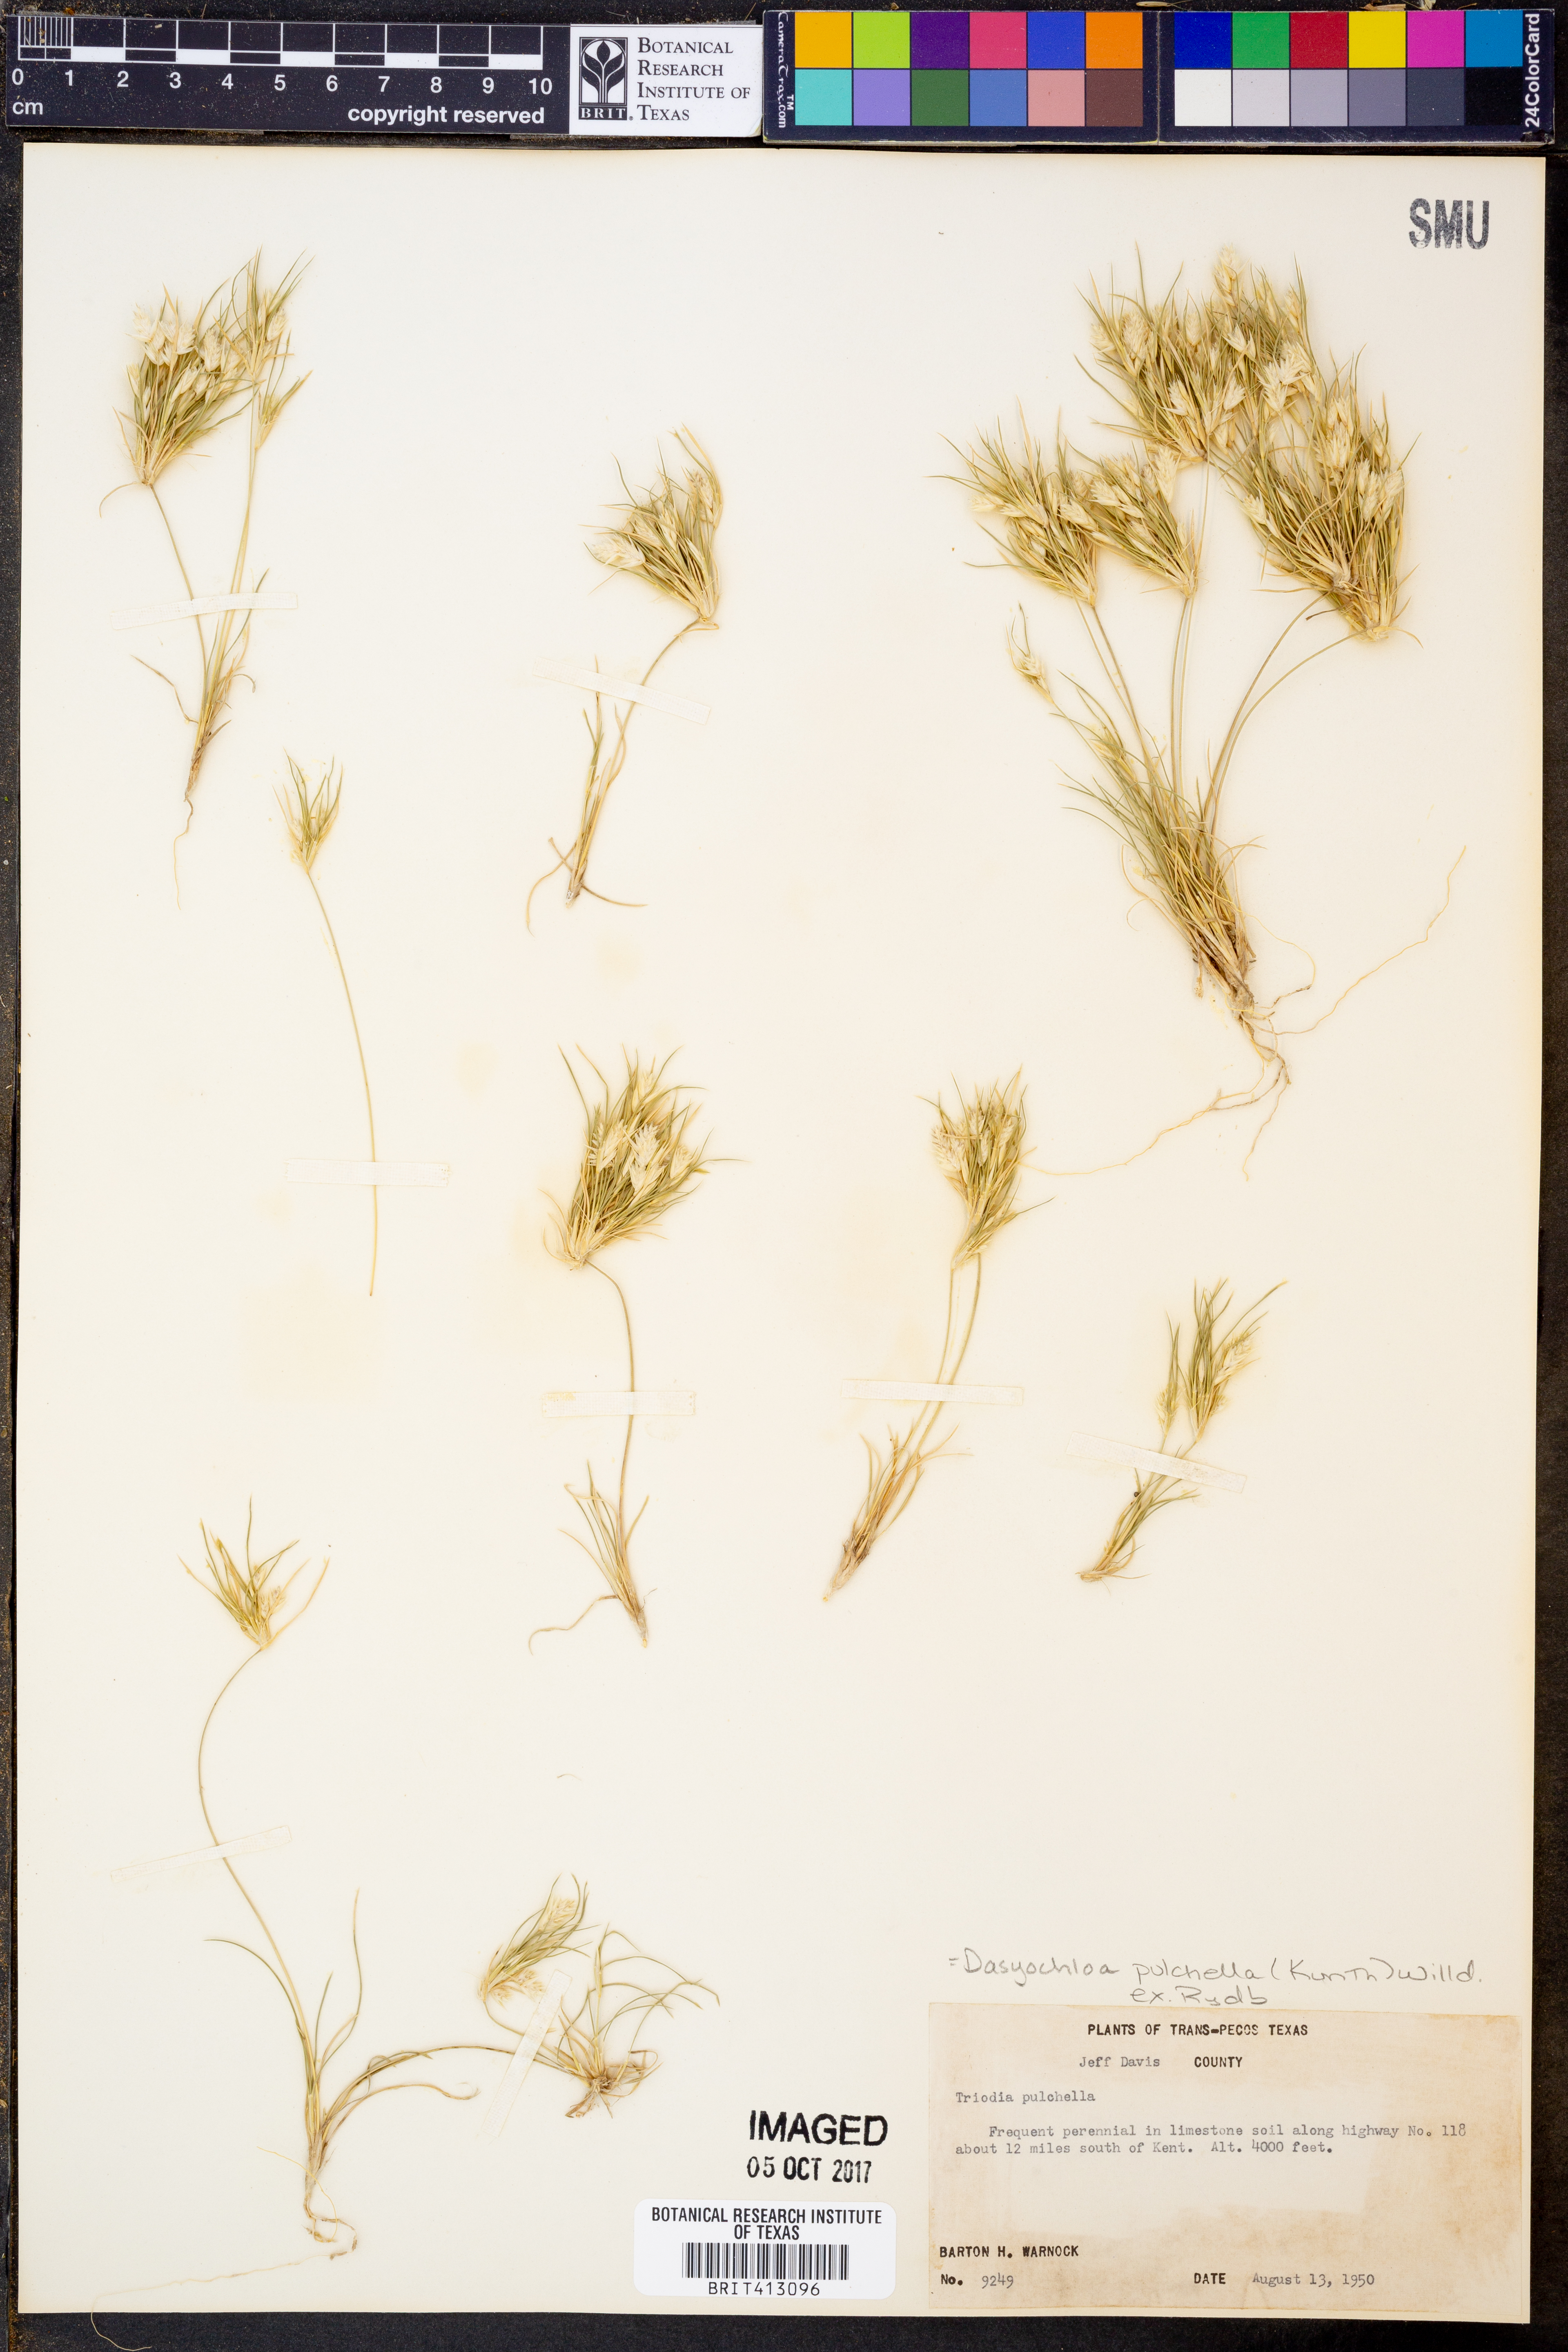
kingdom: Plantae
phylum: Tracheophyta
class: Liliopsida
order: Poales
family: Poaceae
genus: Munroa
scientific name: Munroa pulchella
